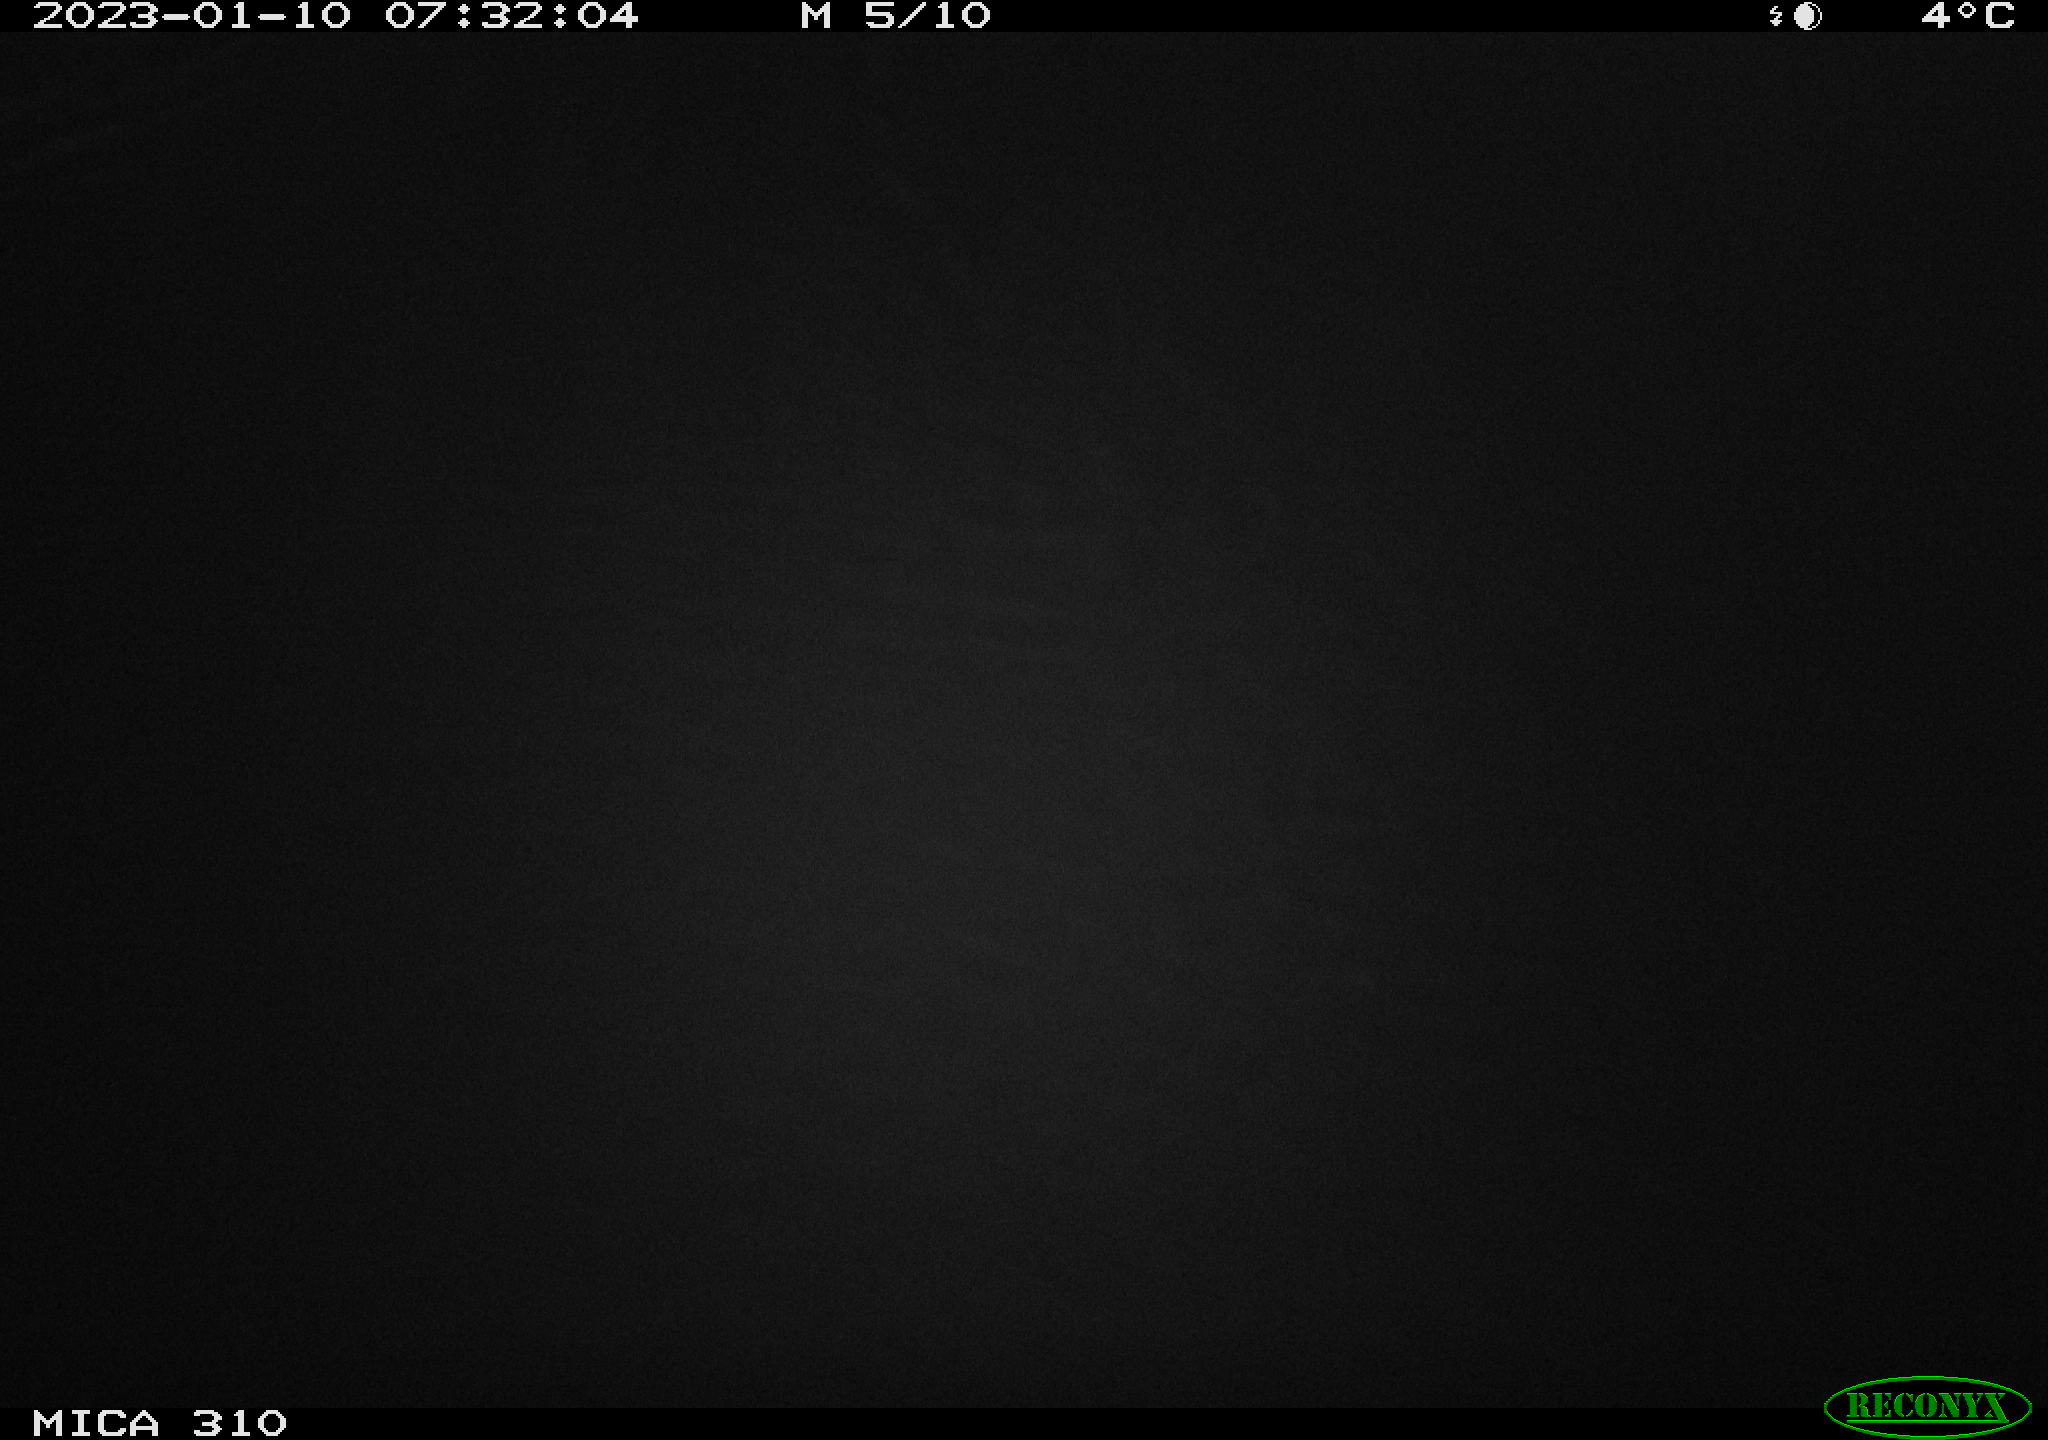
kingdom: Animalia
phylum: Chordata
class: Aves
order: Anseriformes
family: Anatidae
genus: Anas
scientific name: Anas
